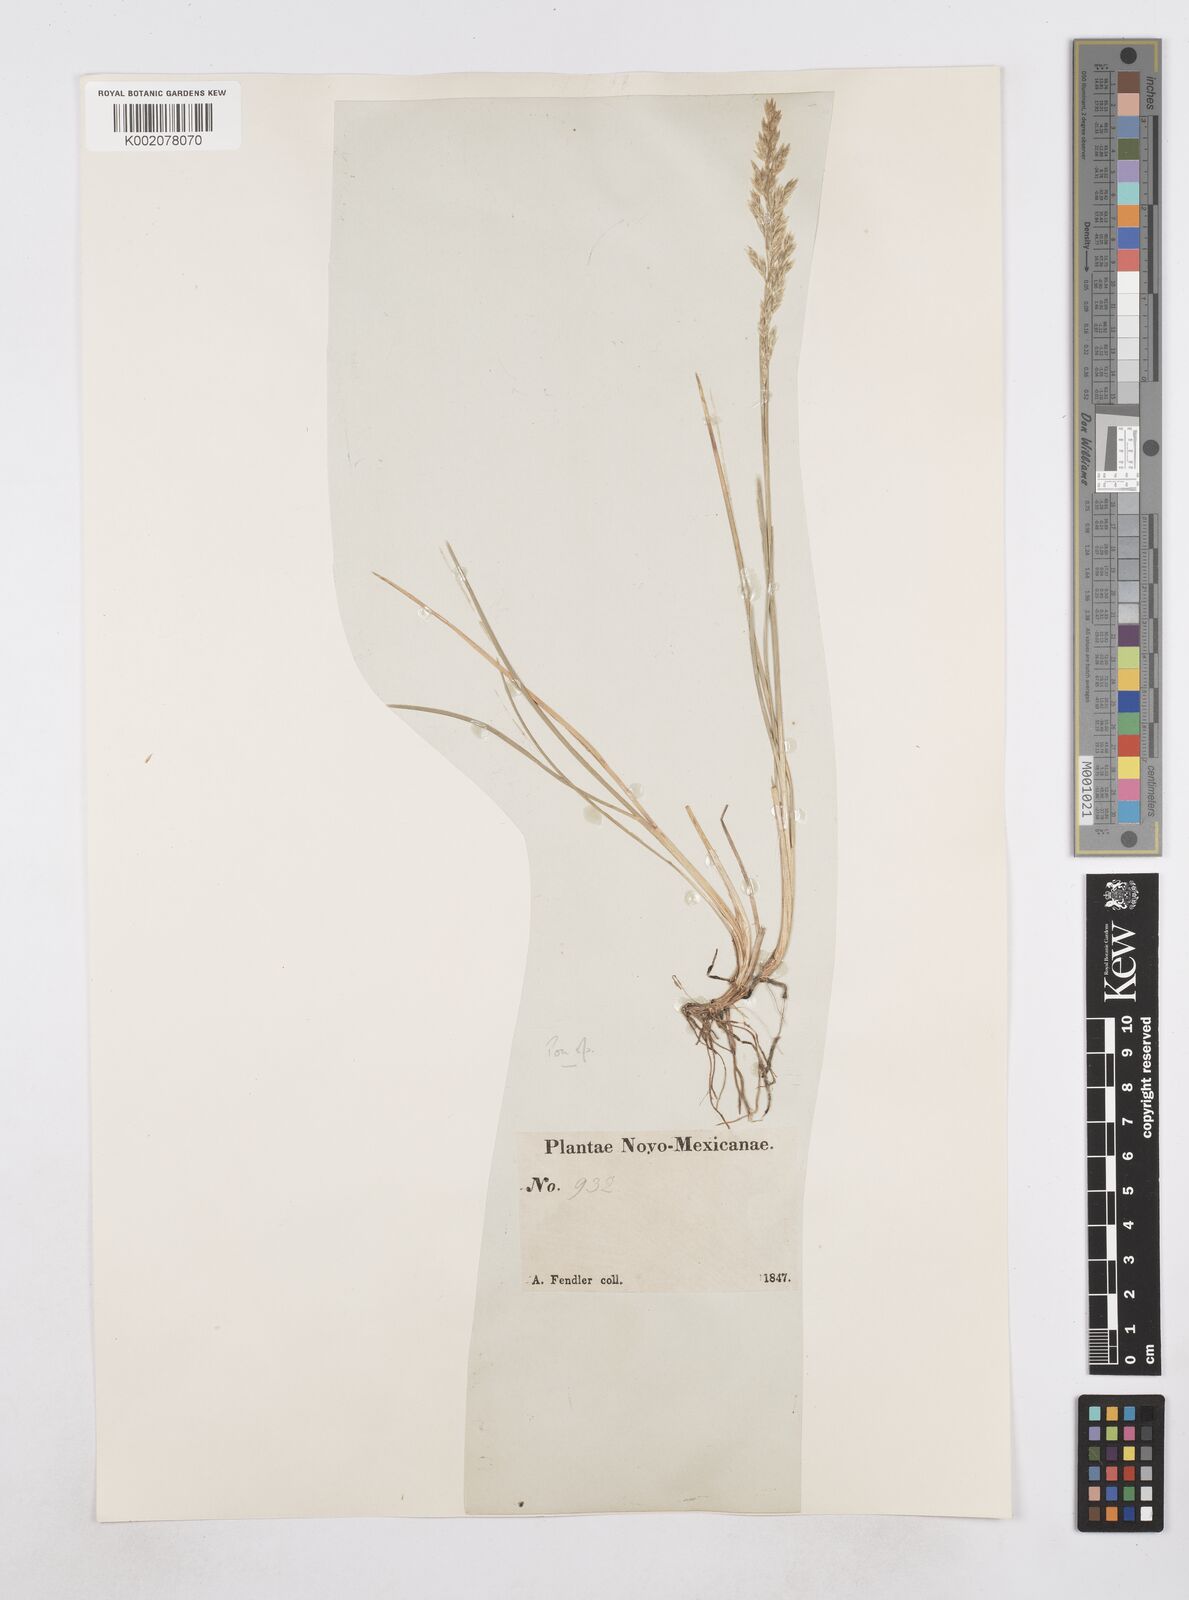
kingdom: Plantae
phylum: Tracheophyta
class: Liliopsida
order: Poales
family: Poaceae
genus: Poa
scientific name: Poa
